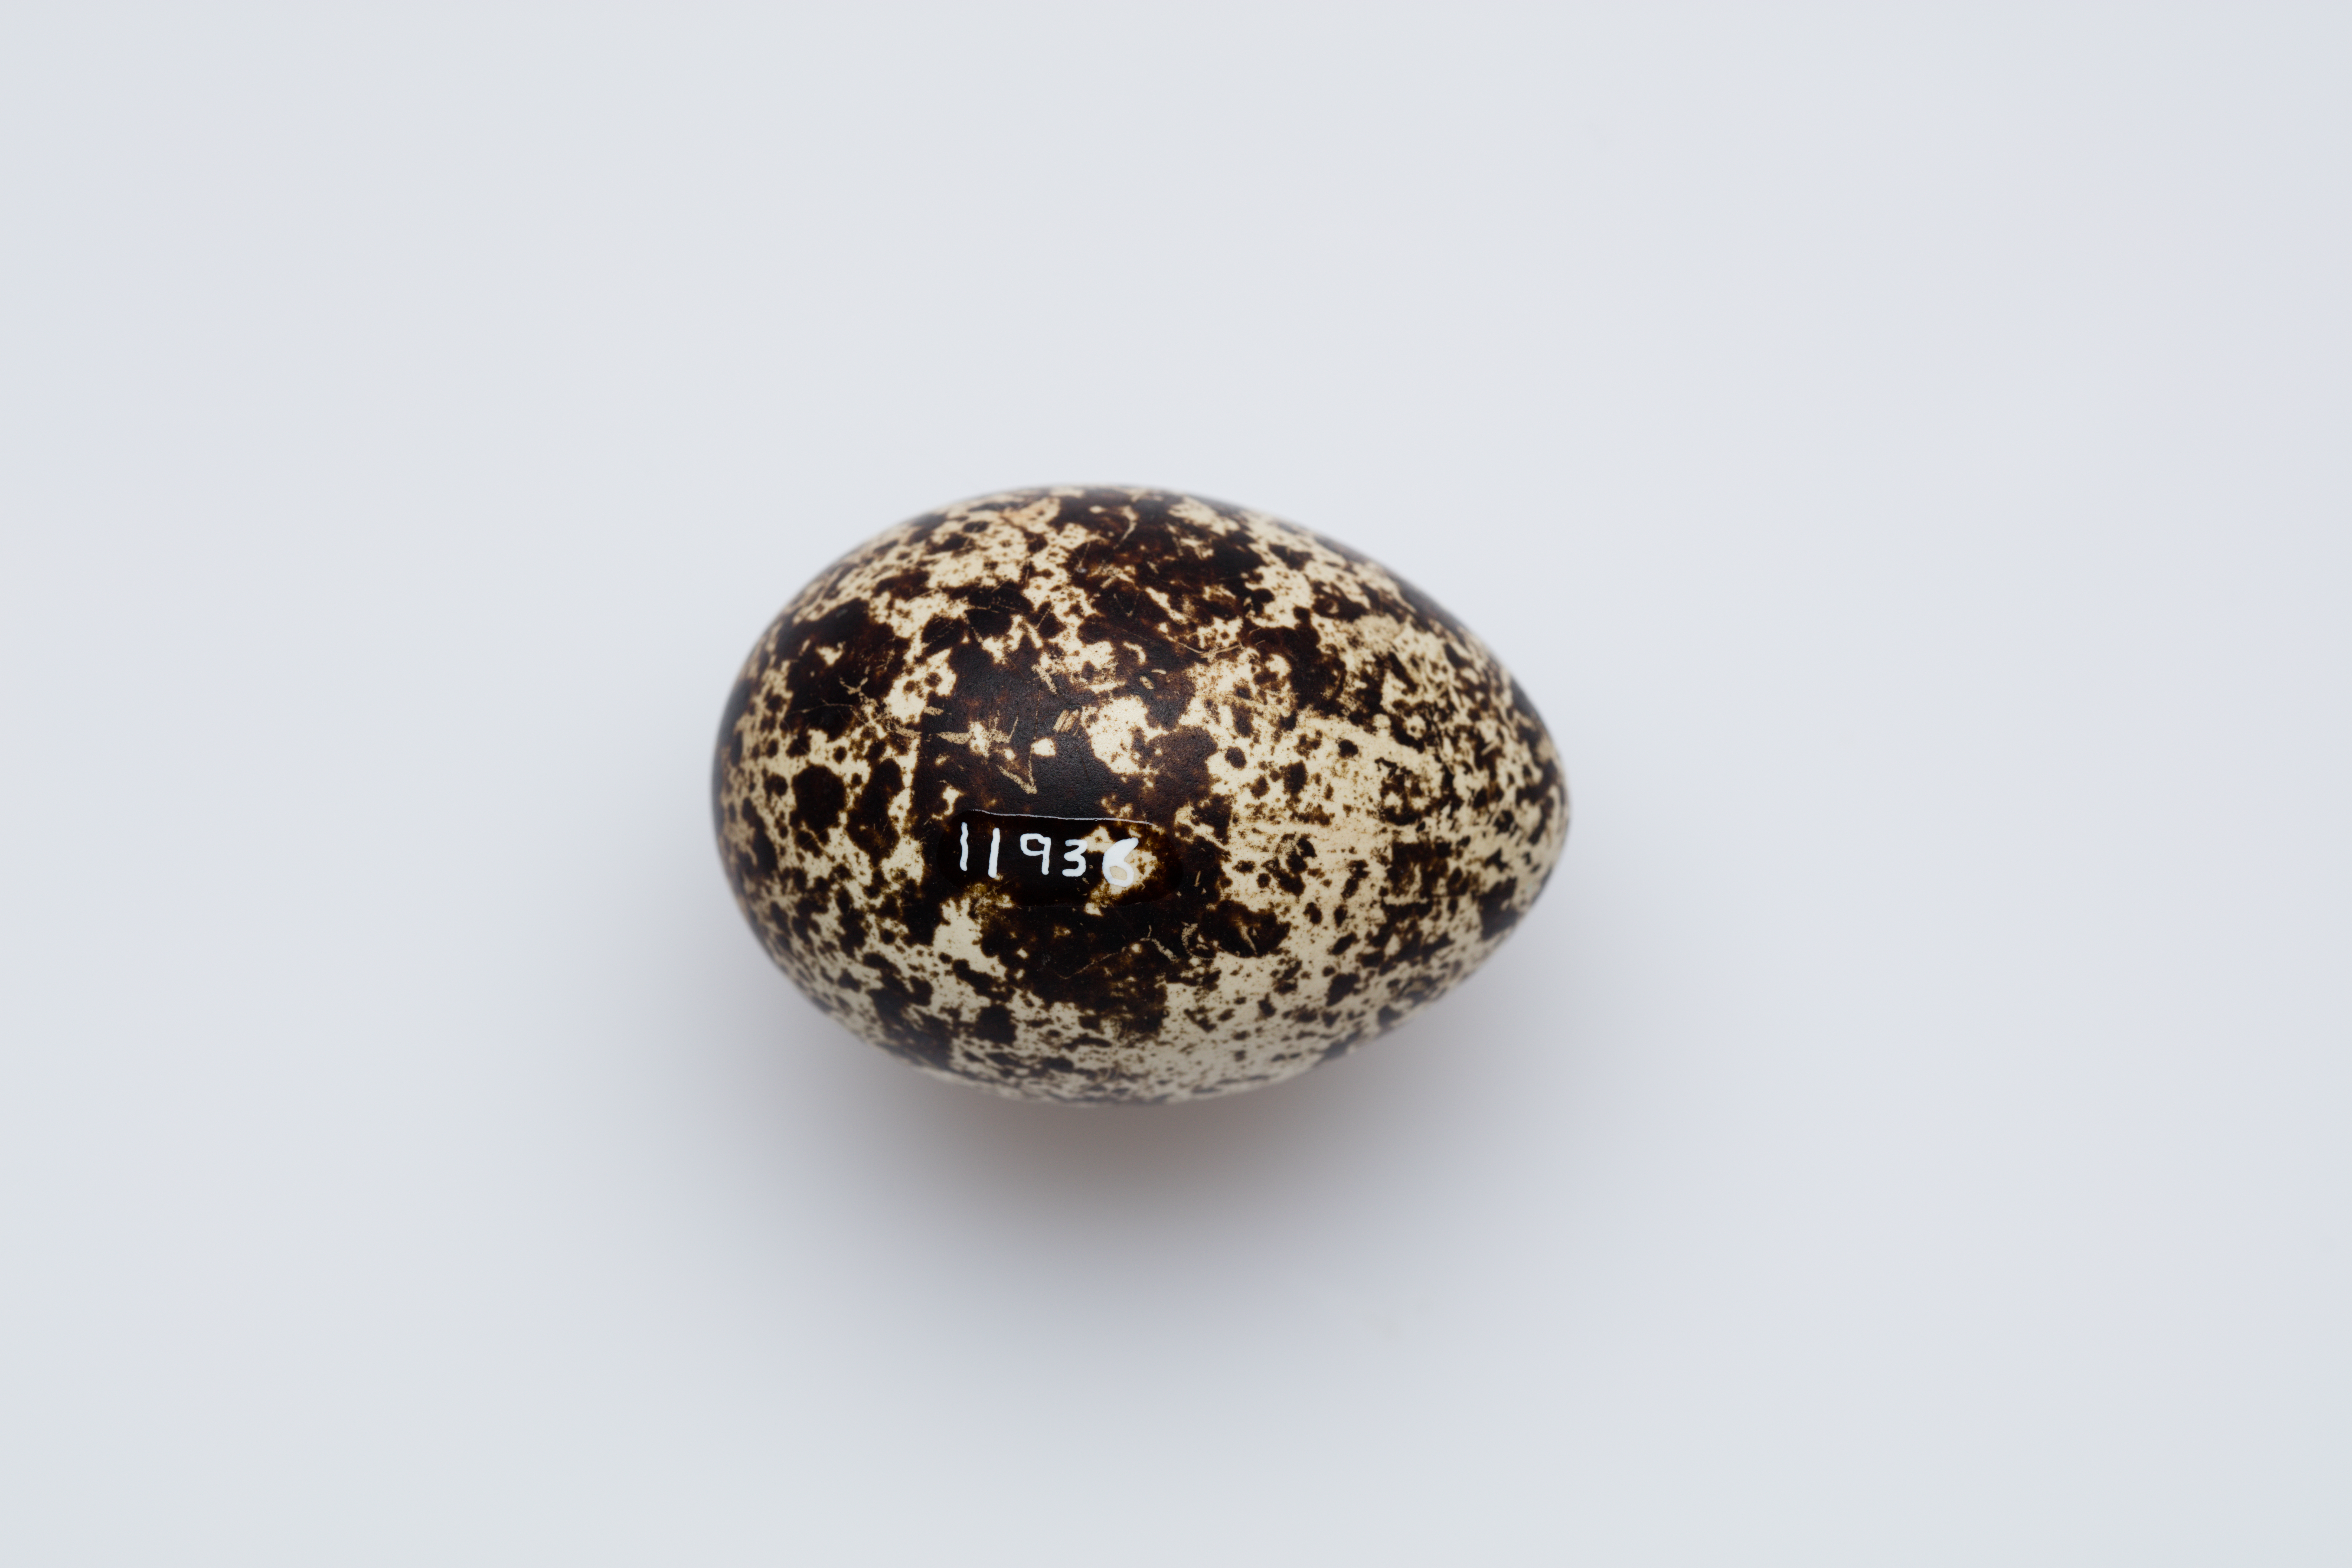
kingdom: Animalia
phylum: Chordata
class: Aves
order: Galliformes
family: Phasianidae
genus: Lagopus
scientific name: Lagopus lagopus
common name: Willow ptarmigan
